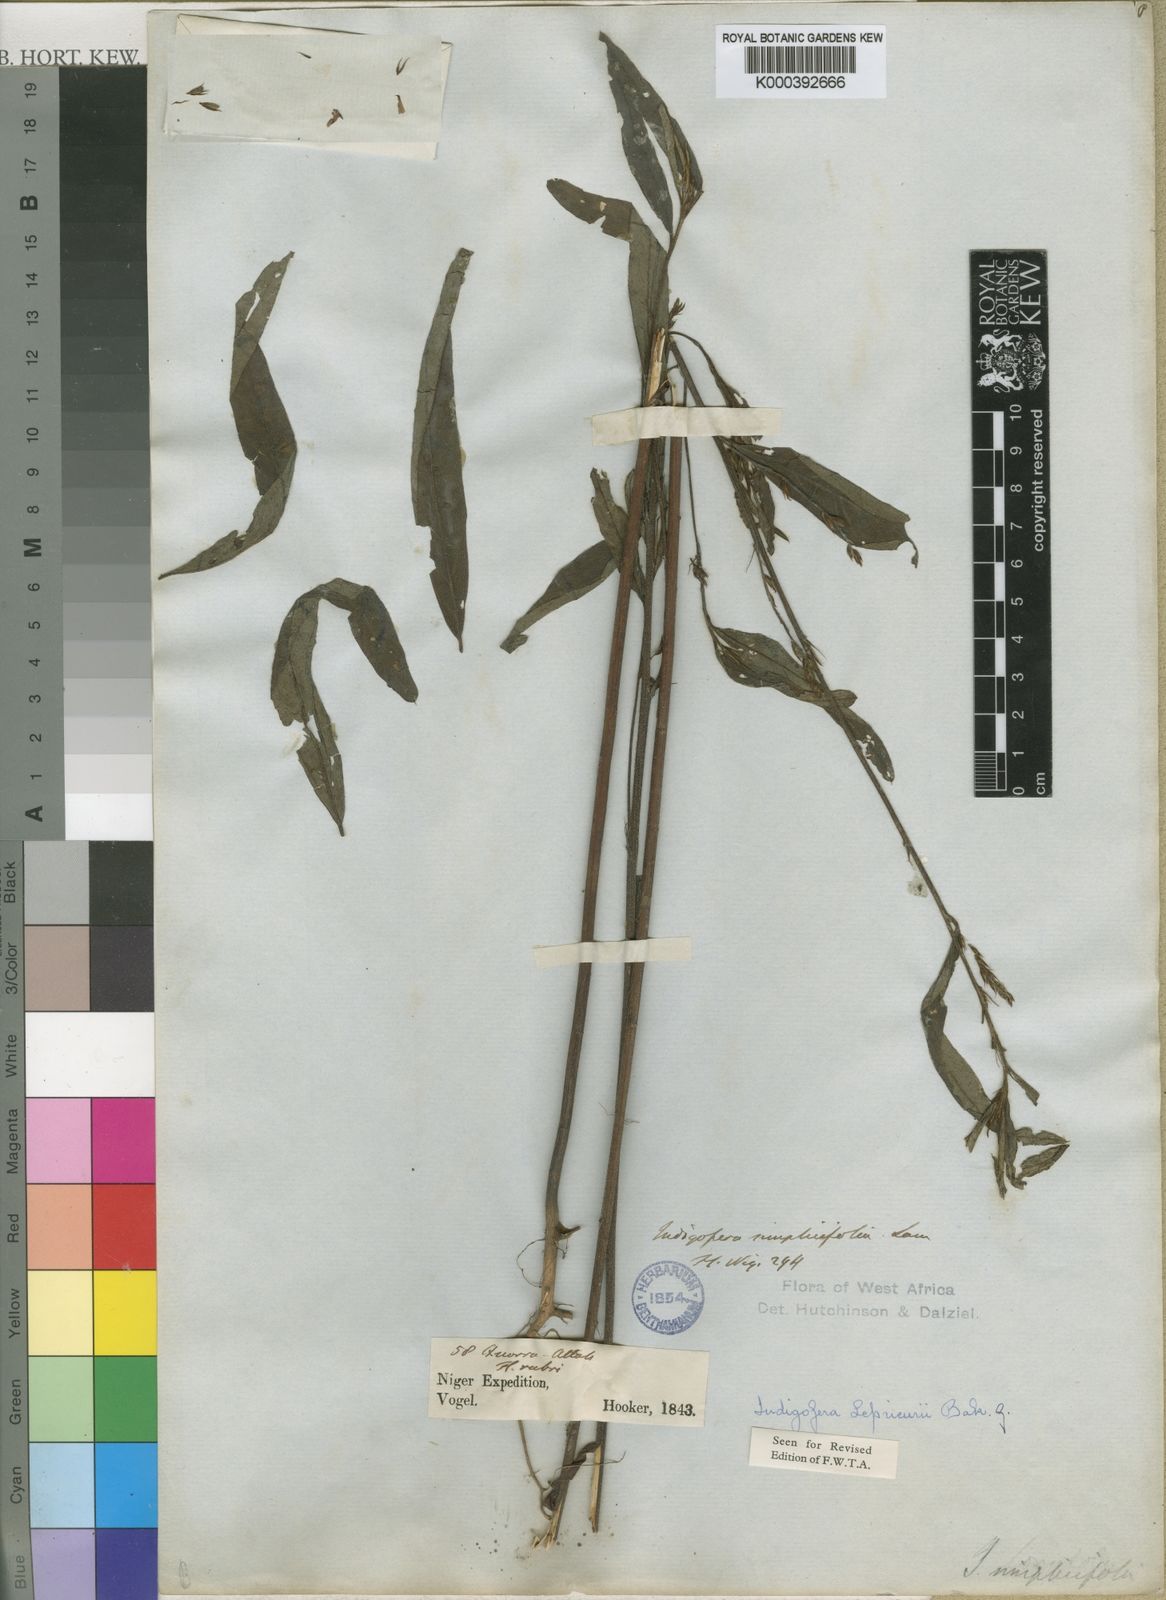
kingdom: Plantae
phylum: Tracheophyta
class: Magnoliopsida
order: Fabales
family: Fabaceae
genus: Indigofera
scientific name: Indigofera leprieurii
